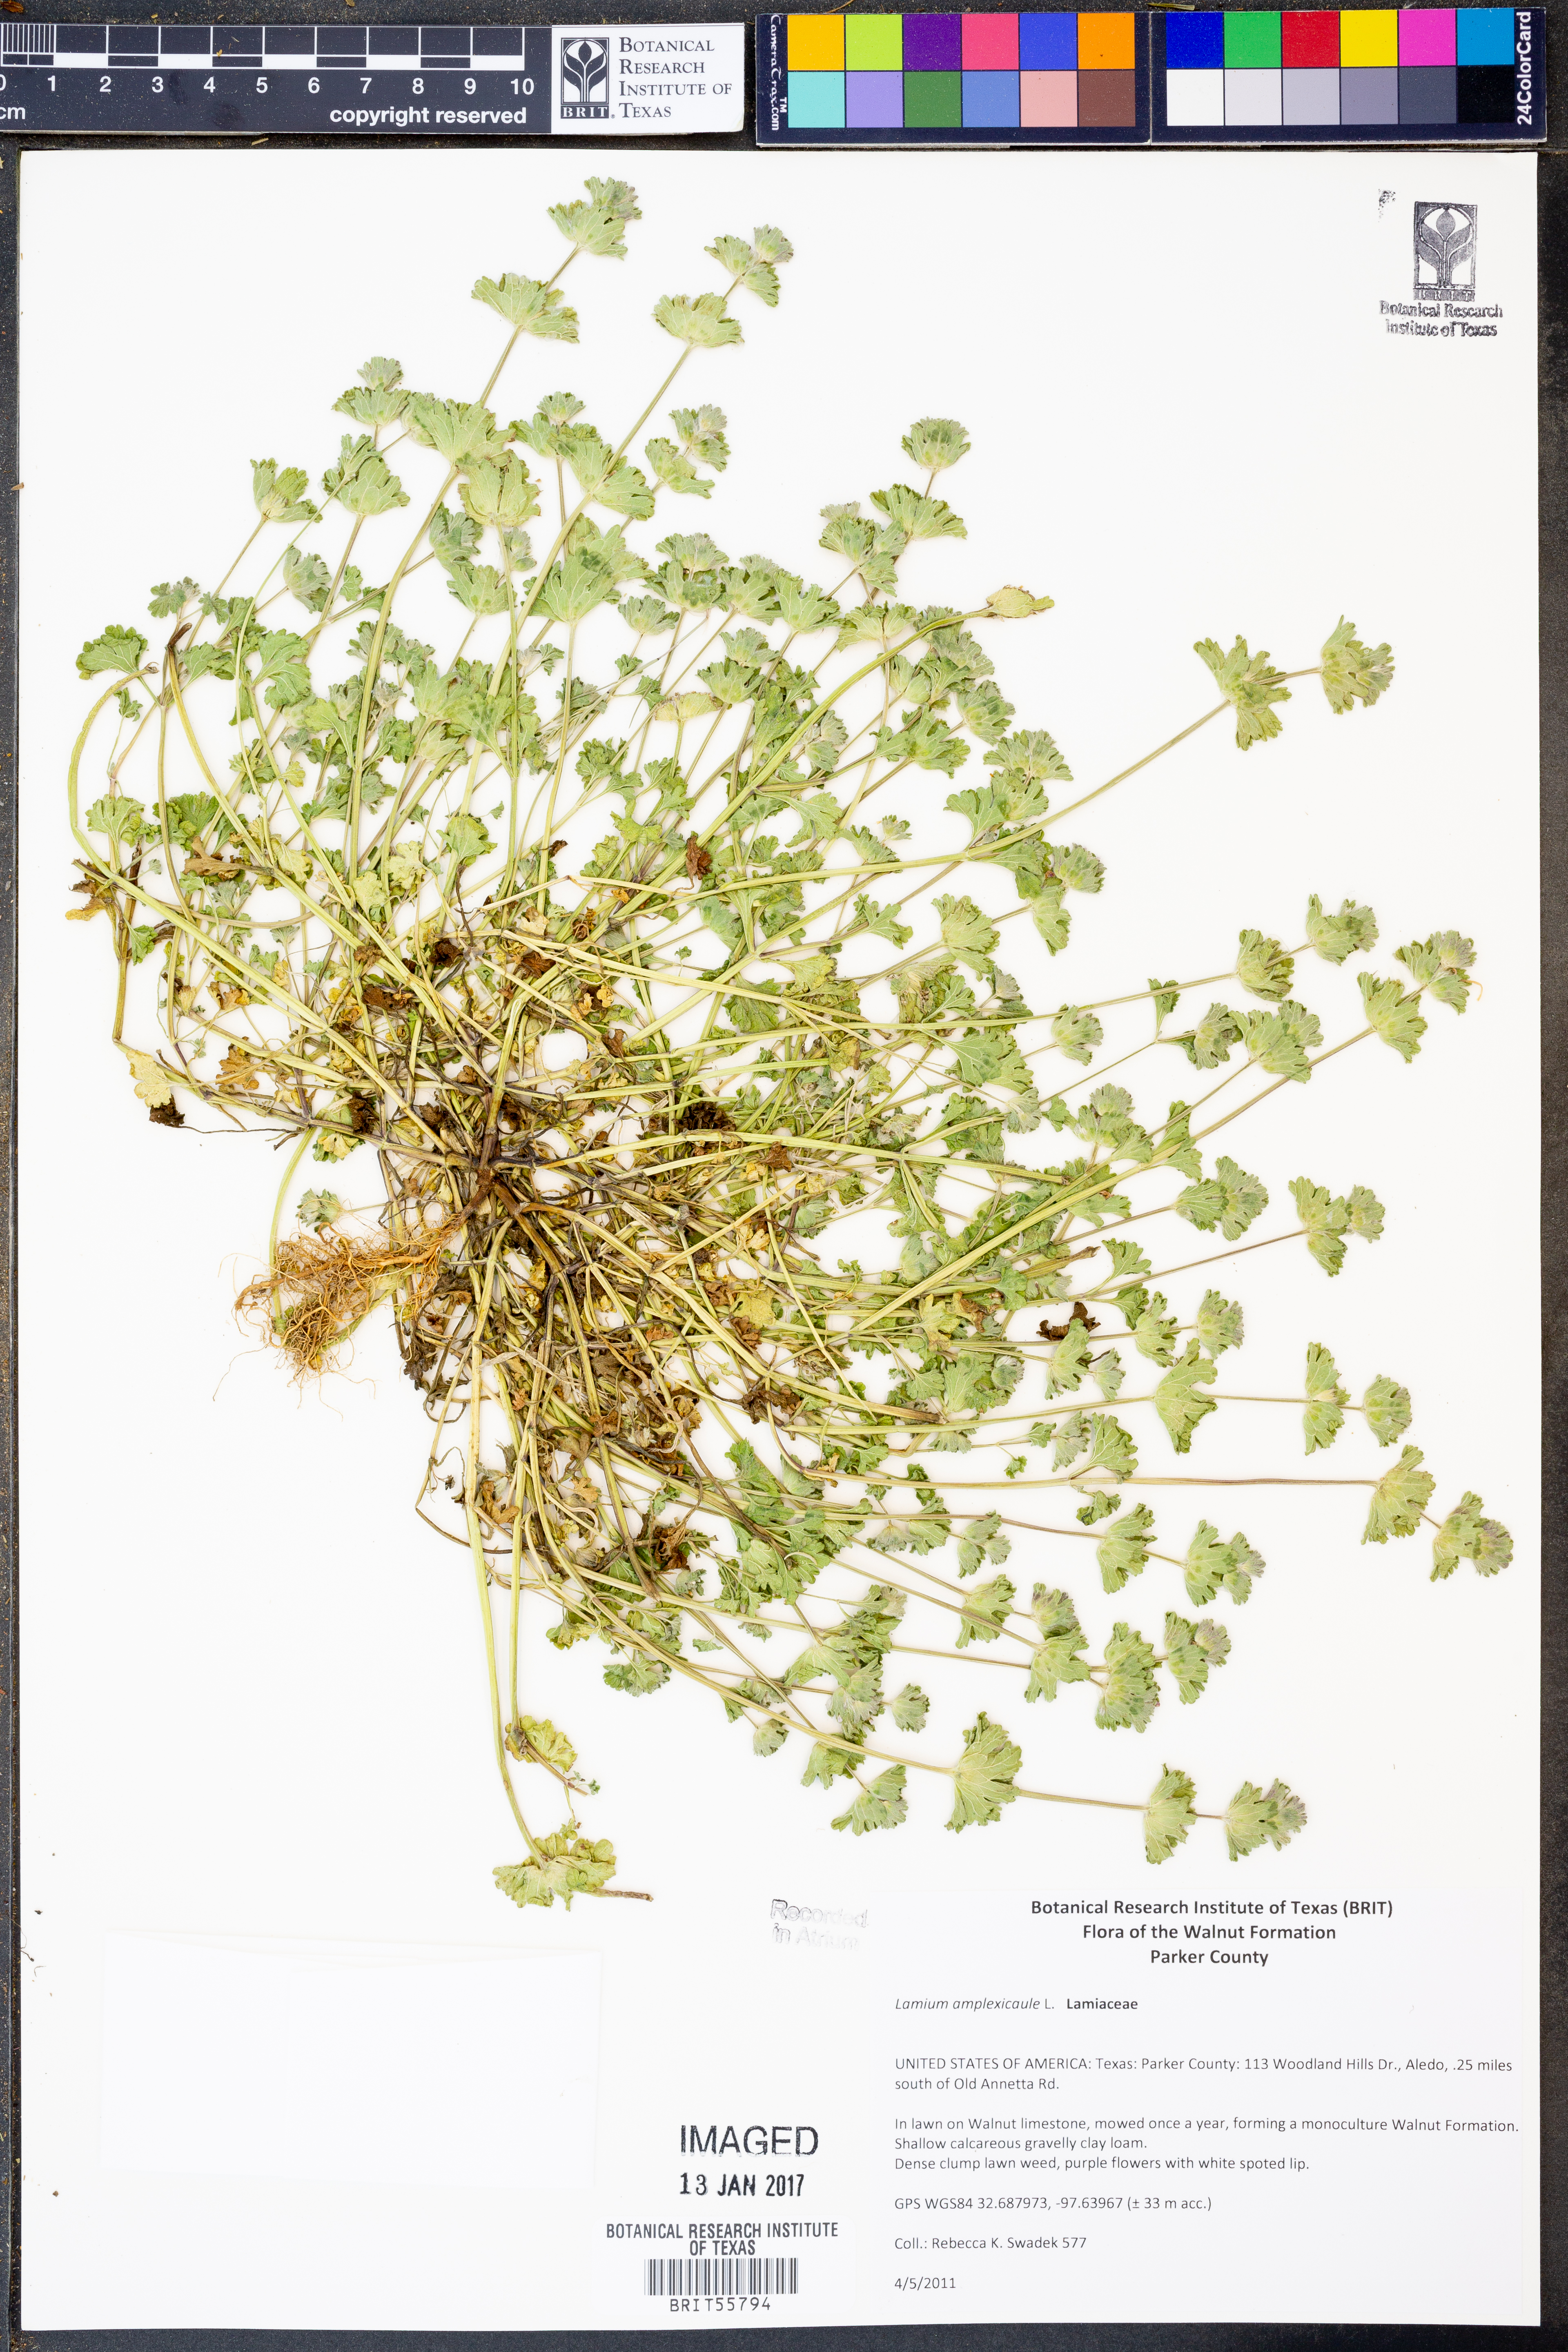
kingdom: Plantae
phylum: Tracheophyta
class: Magnoliopsida
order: Lamiales
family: Lamiaceae
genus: Lamium
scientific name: Lamium amplexicaule
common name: Henbit dead-nettle
